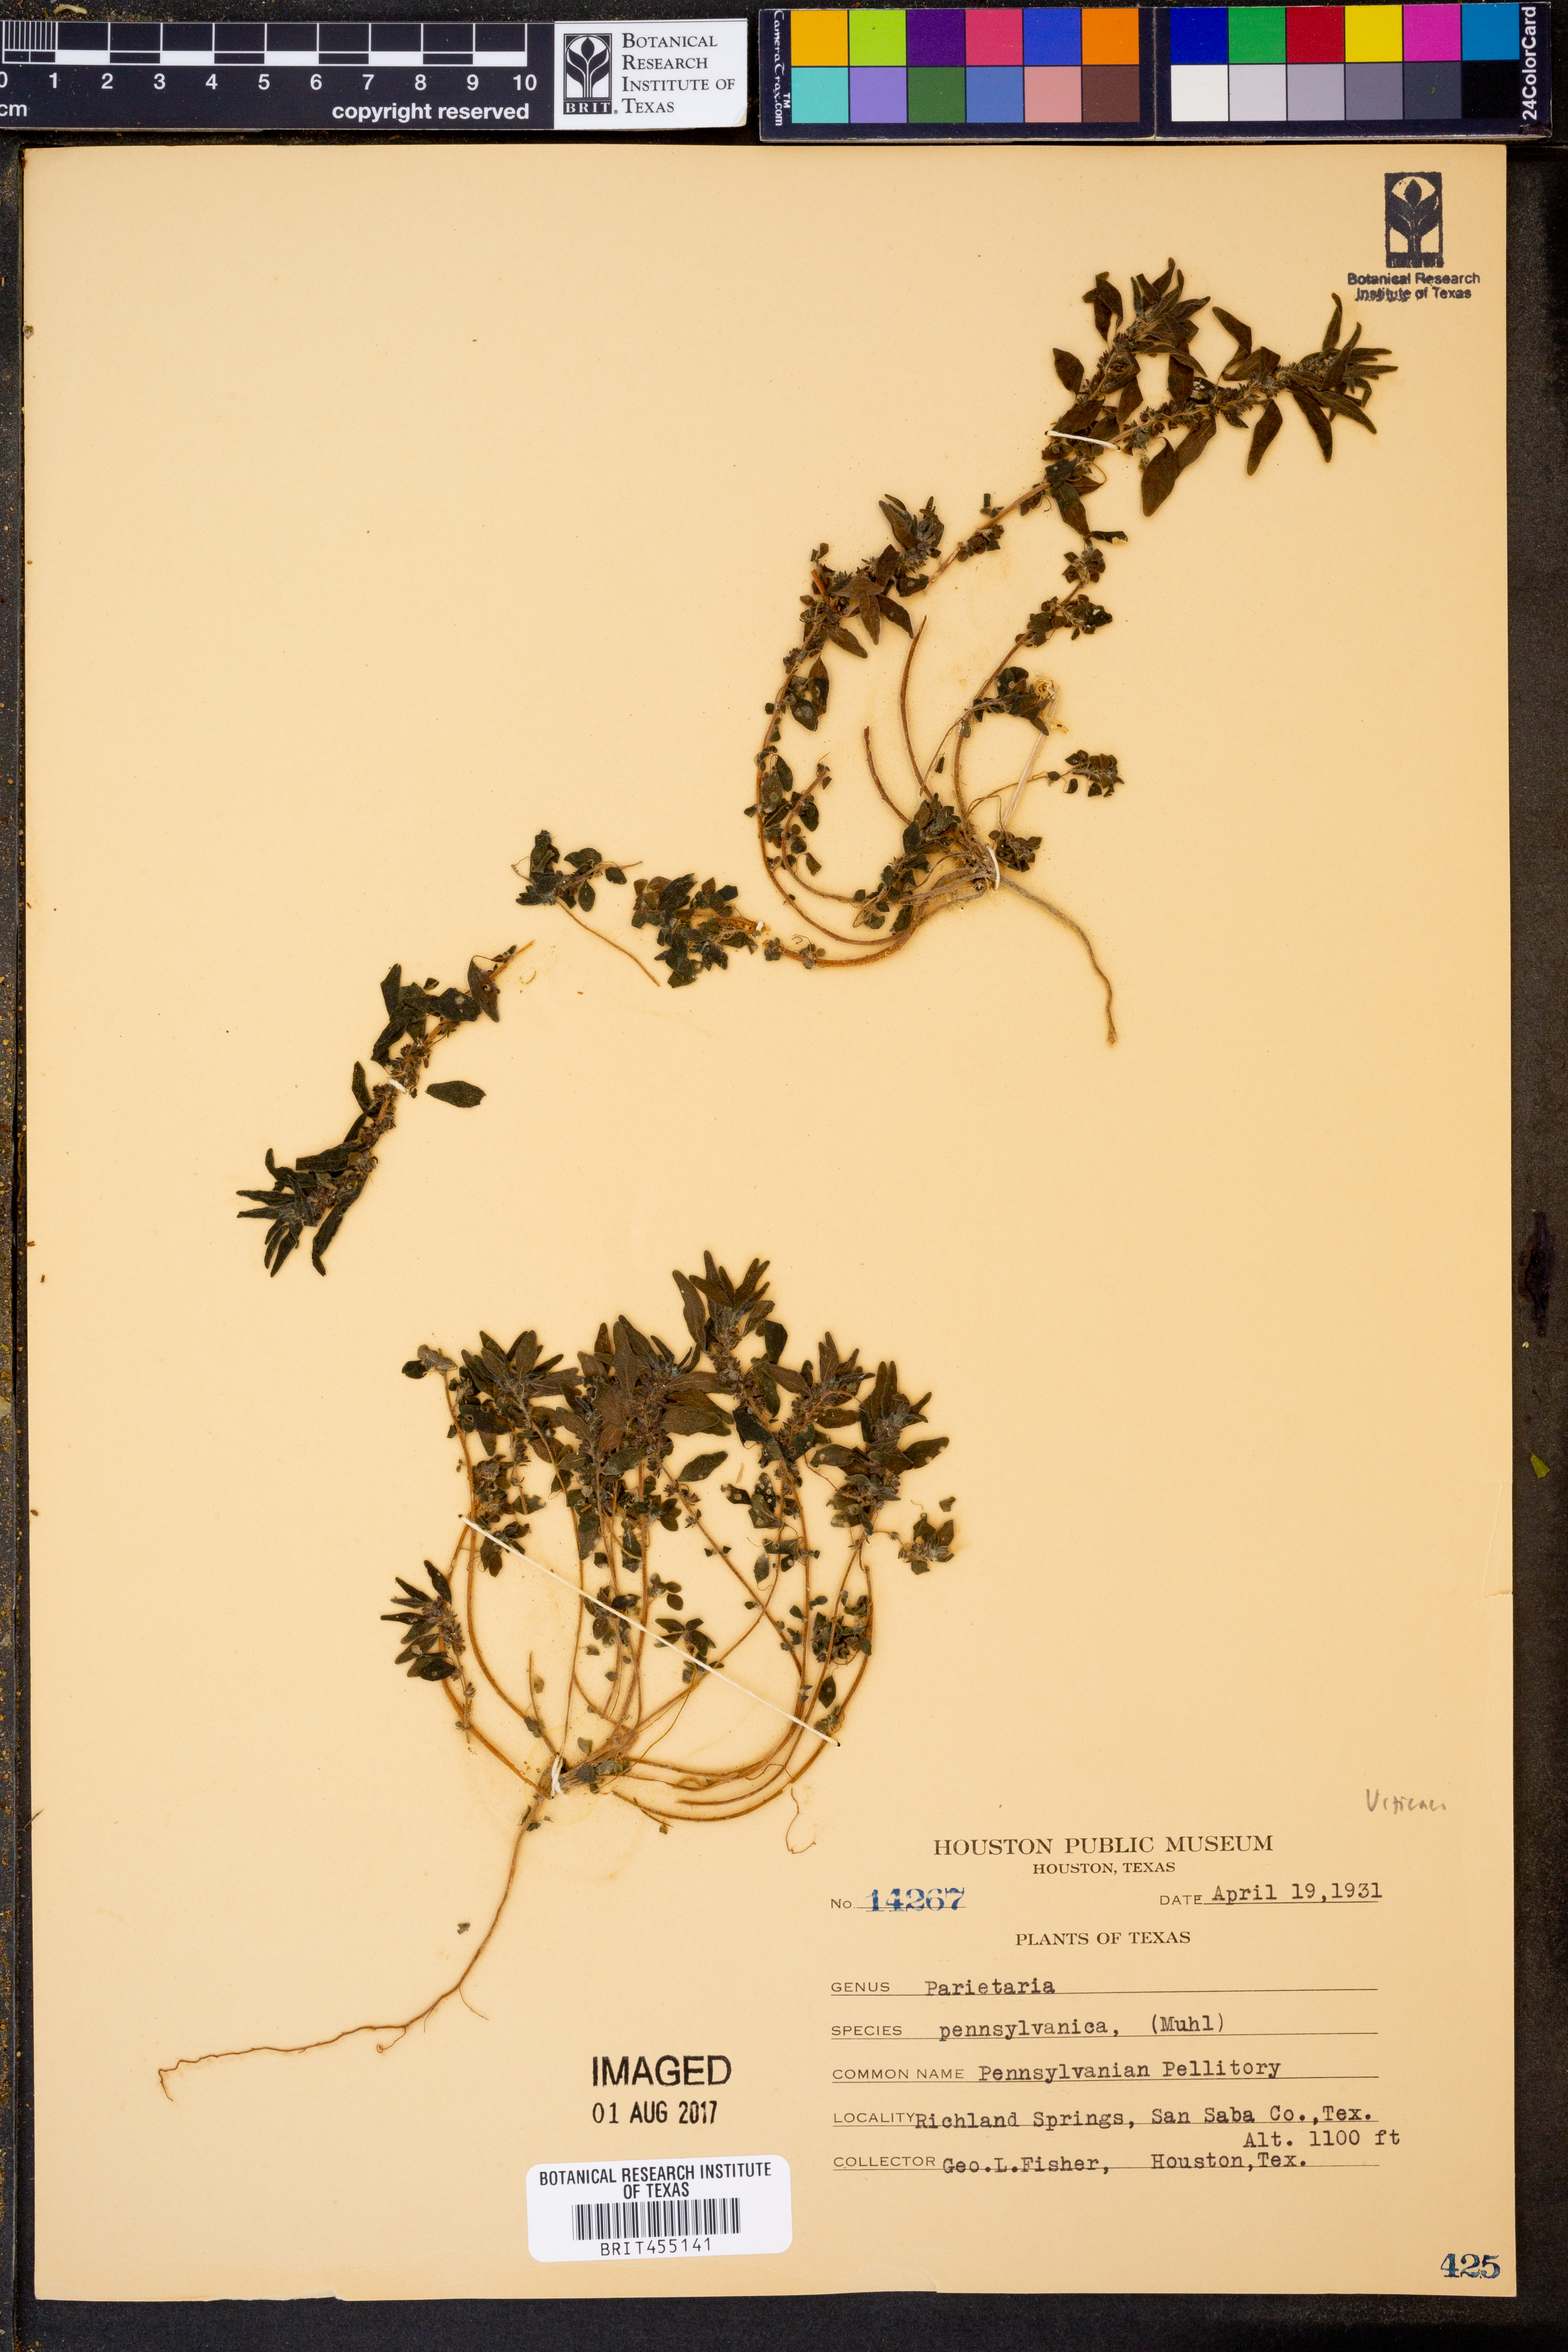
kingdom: Plantae
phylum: Tracheophyta
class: Magnoliopsida
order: Rosales
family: Urticaceae
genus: Parietaria
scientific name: Parietaria pensylvanica
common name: Pennsylvania pellitory
